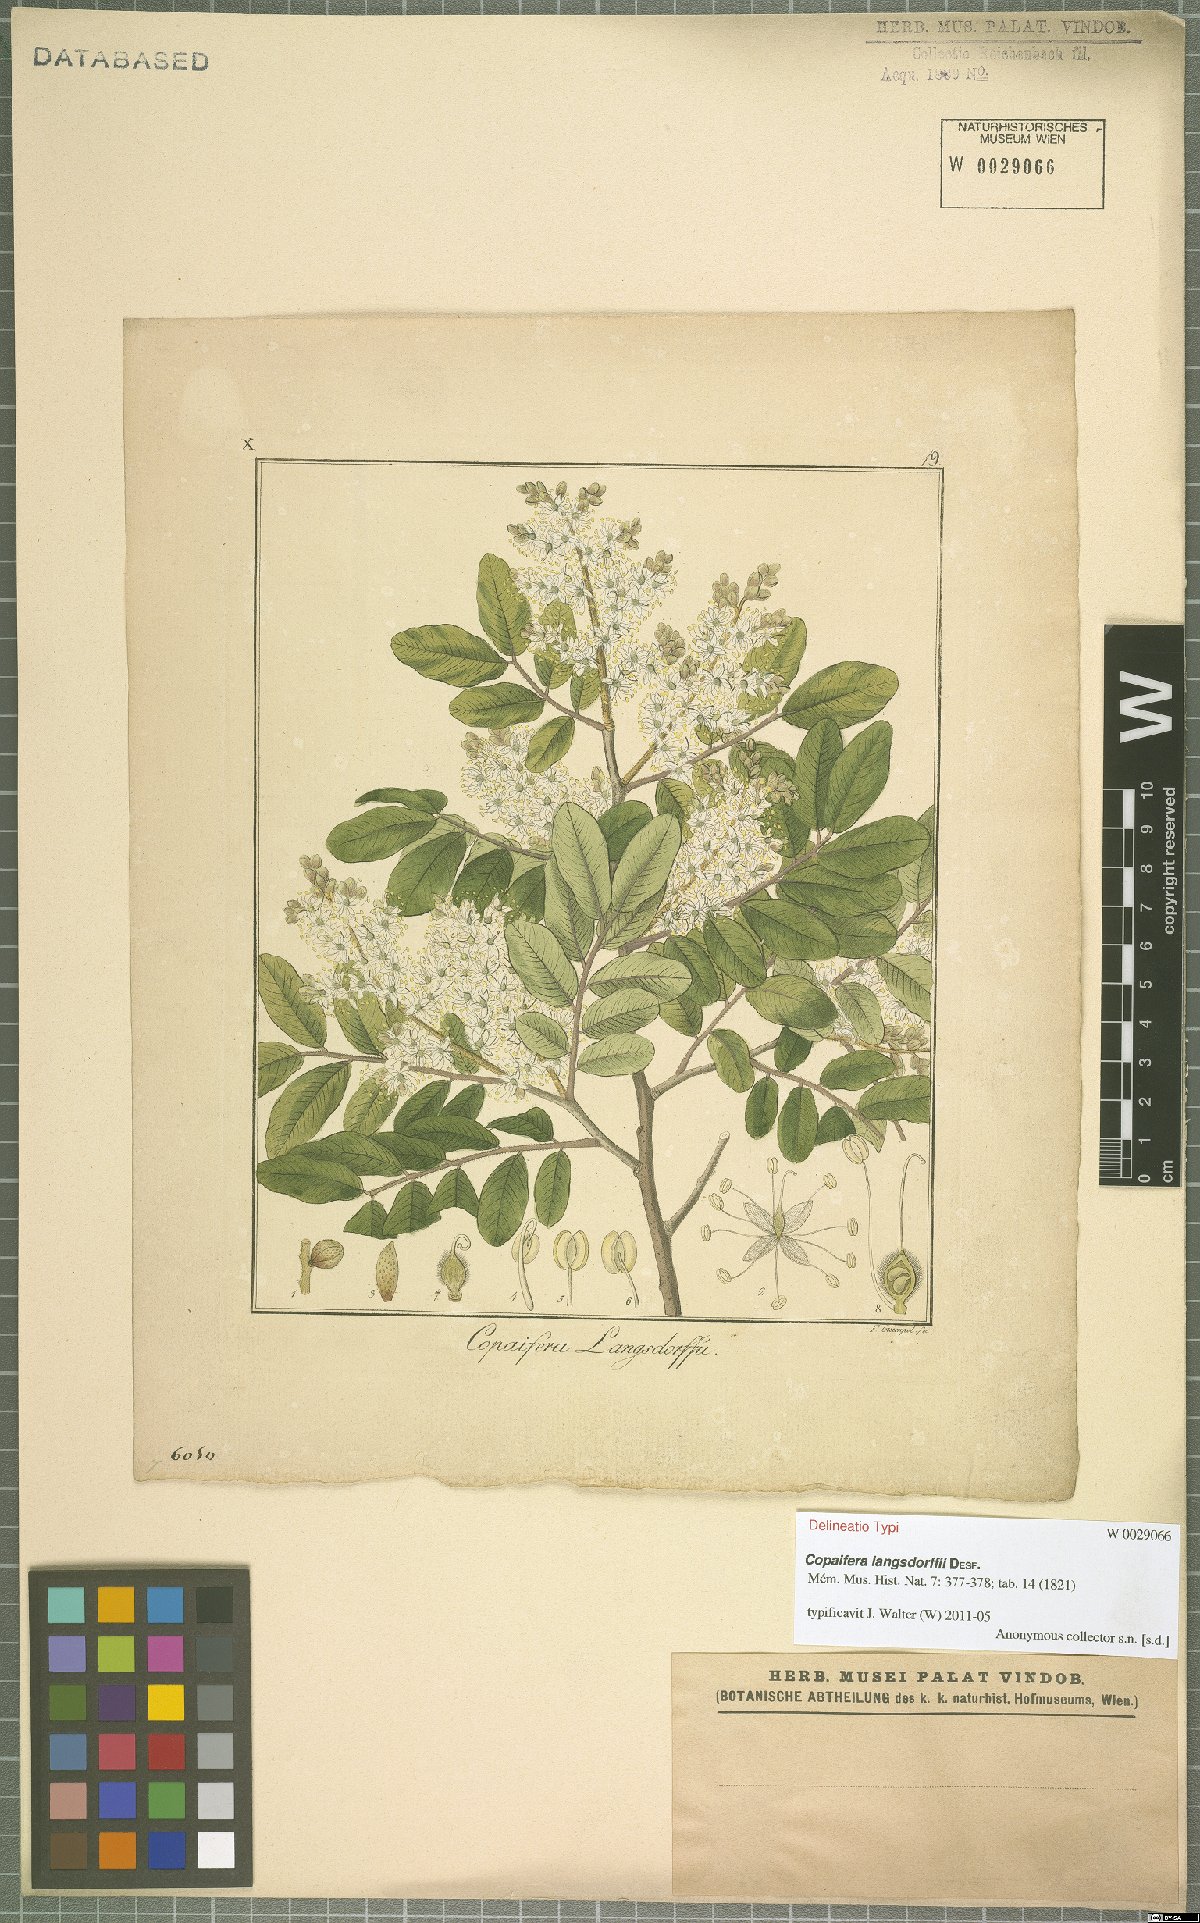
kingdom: Plantae
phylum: Tracheophyta
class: Magnoliopsida
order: Fabales
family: Fabaceae
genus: Copaifera
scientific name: Copaifera langsdorffii
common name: Brazilian diesel tree
